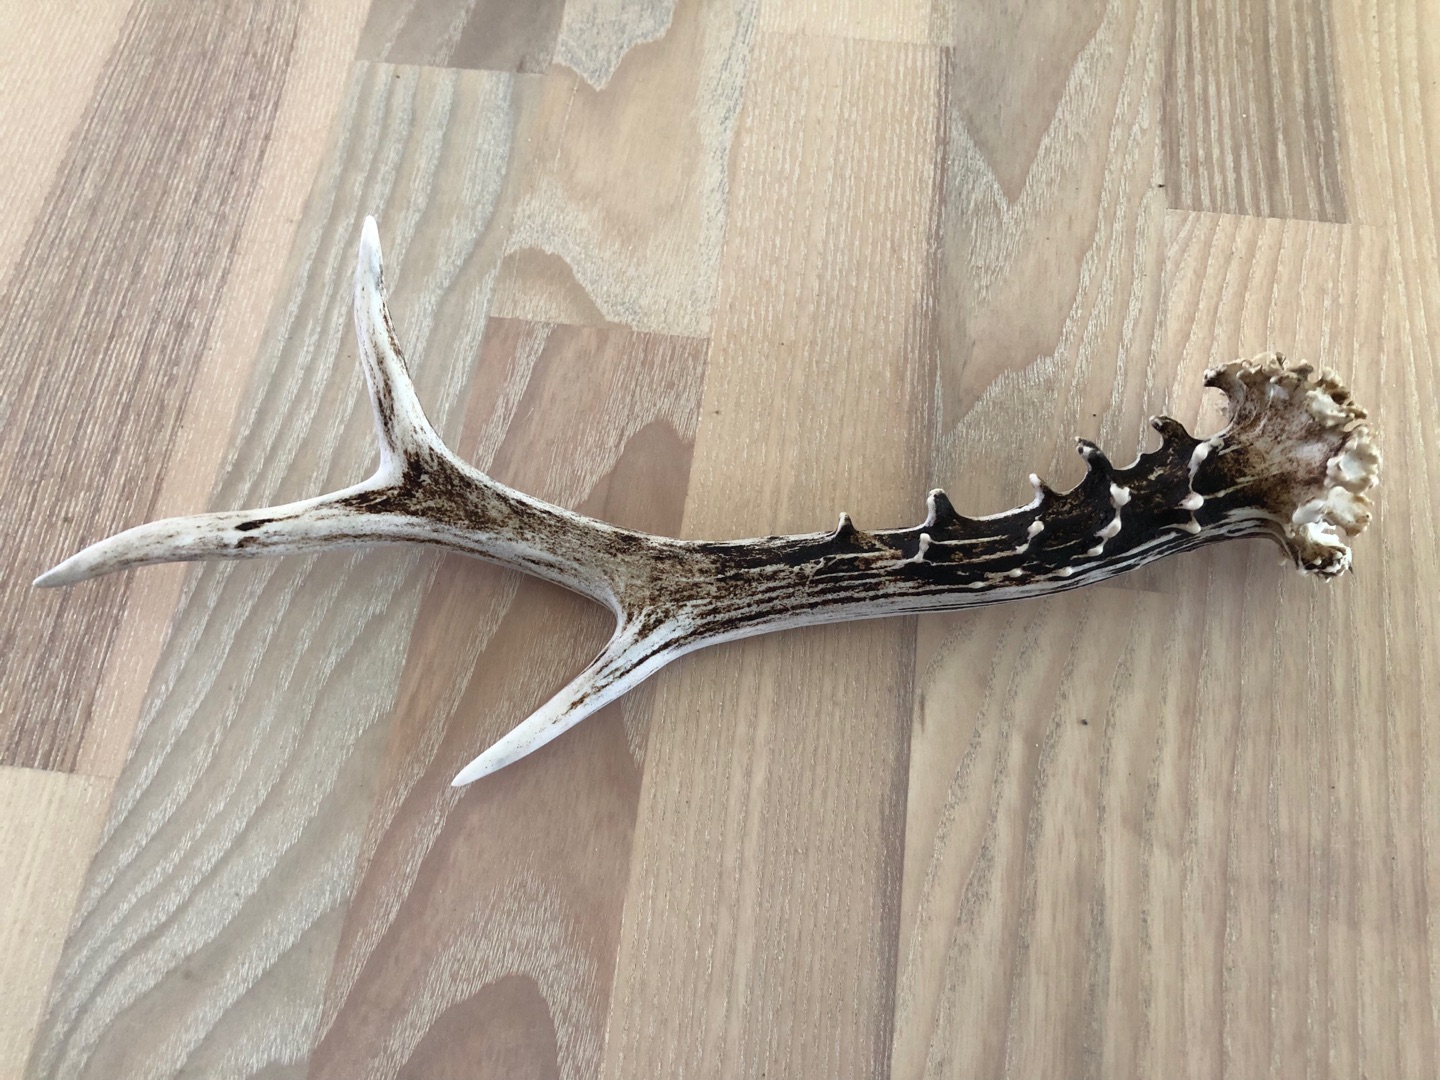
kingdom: Animalia
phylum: Chordata
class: Mammalia
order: Artiodactyla
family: Cervidae
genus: Capreolus
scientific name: Capreolus capreolus
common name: Rådyr
